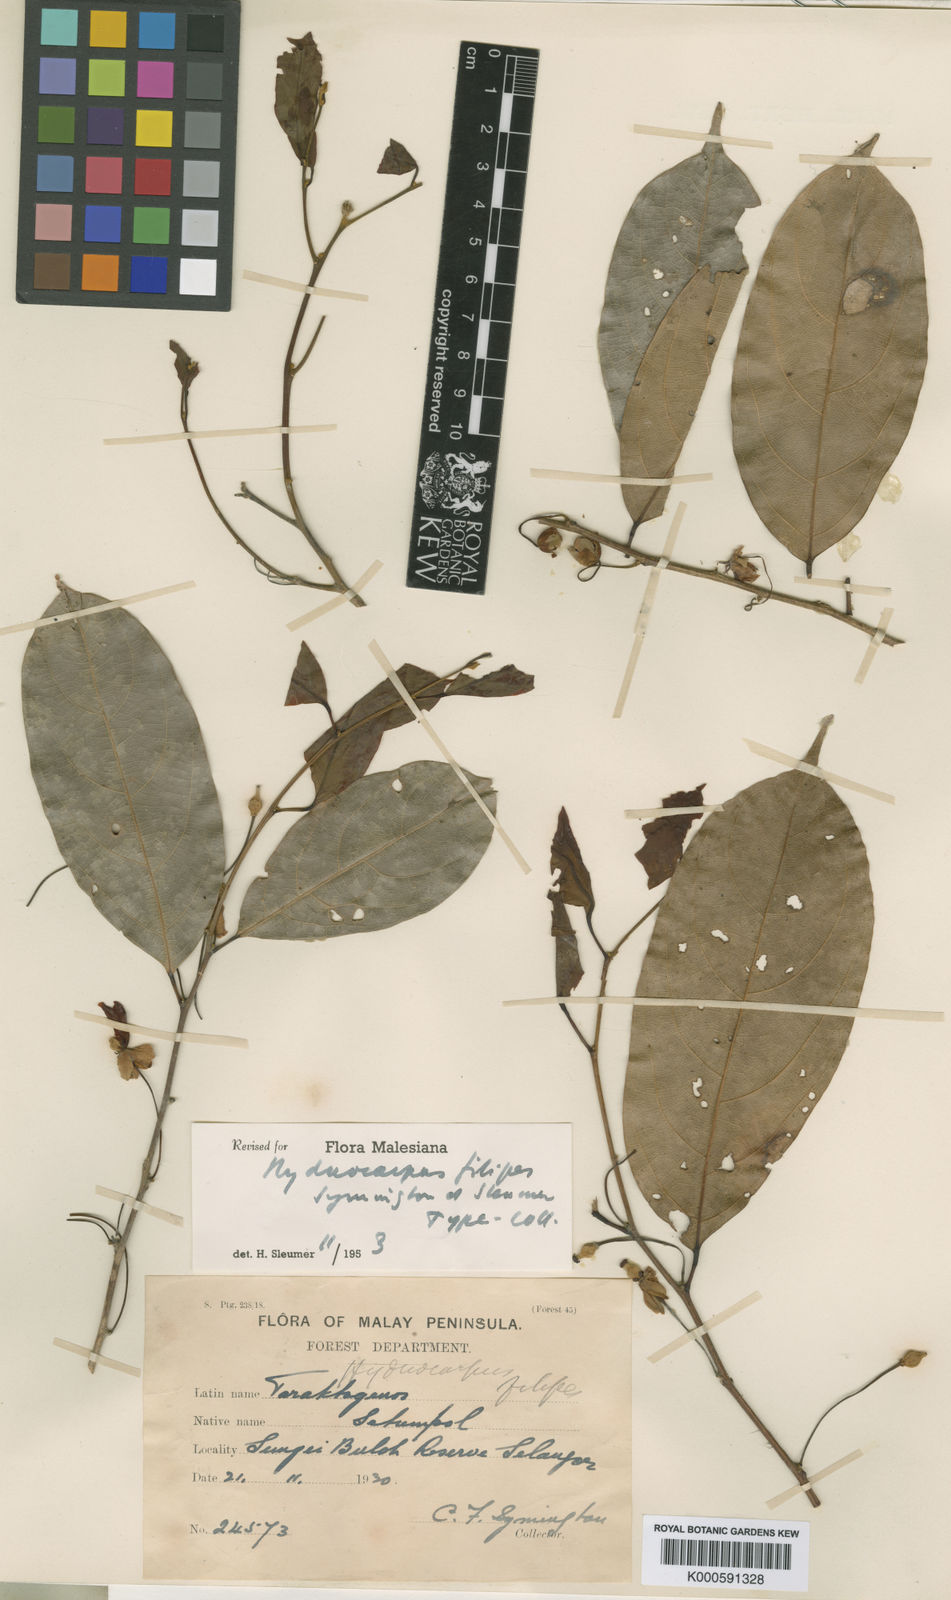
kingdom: Plantae
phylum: Tracheophyta
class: Magnoliopsida
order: Malpighiales
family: Achariaceae
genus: Hydnocarpus
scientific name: Hydnocarpus filipes
